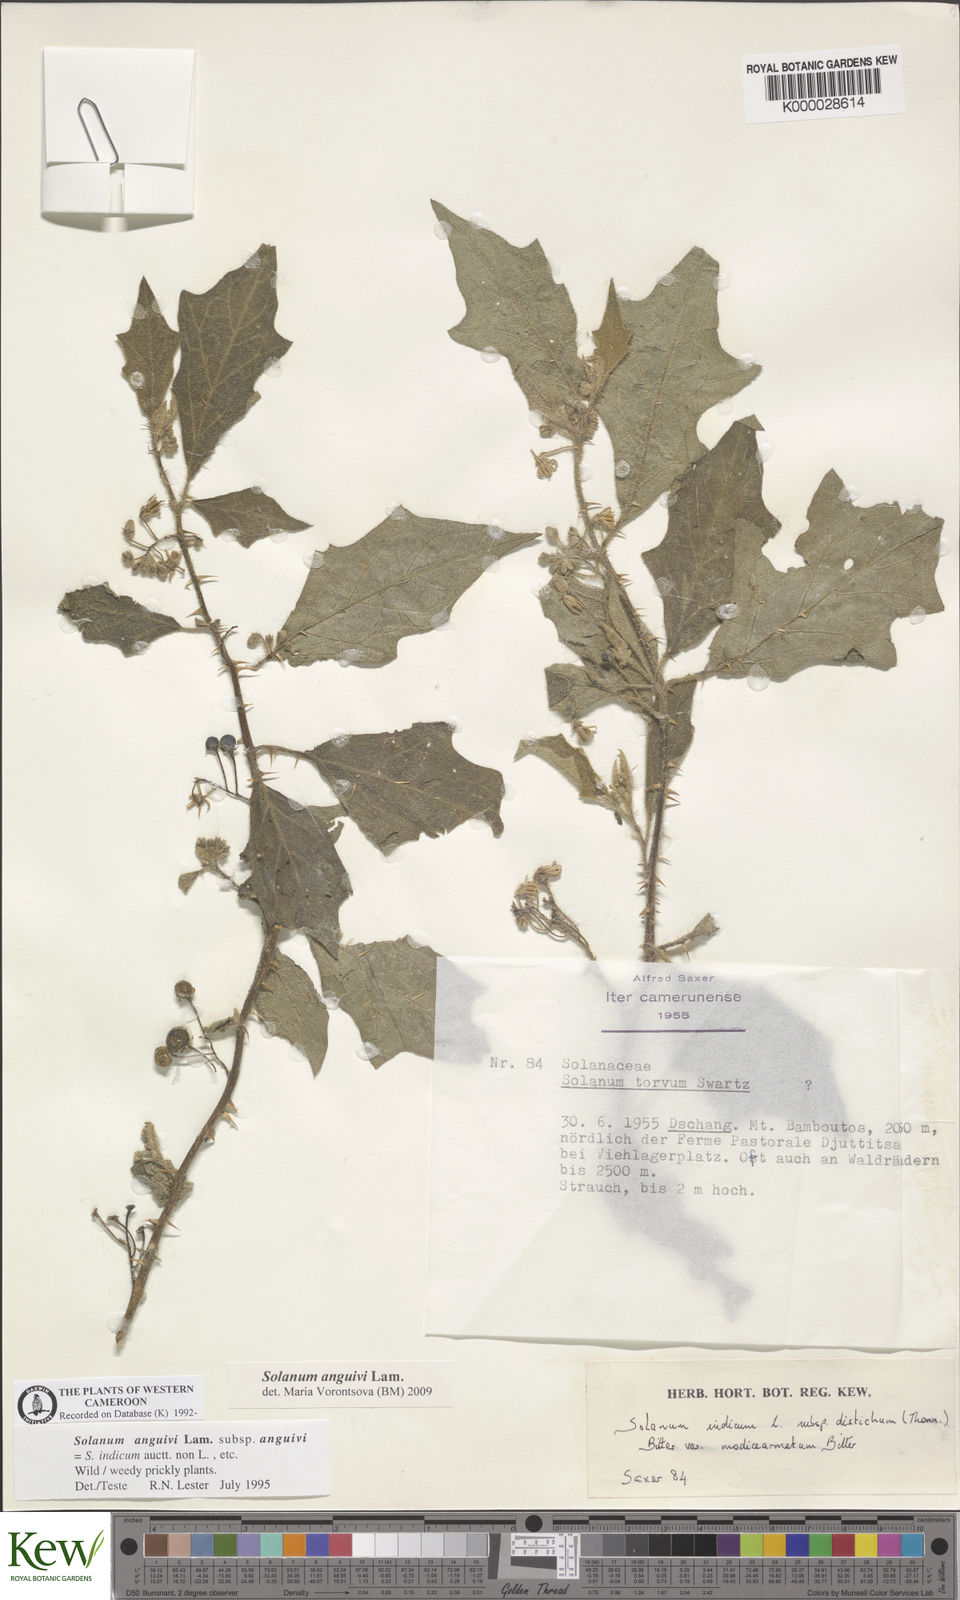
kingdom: Plantae
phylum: Tracheophyta
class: Magnoliopsida
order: Solanales
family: Solanaceae
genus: Solanum
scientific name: Solanum anguivi
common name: Forest bitterberry
